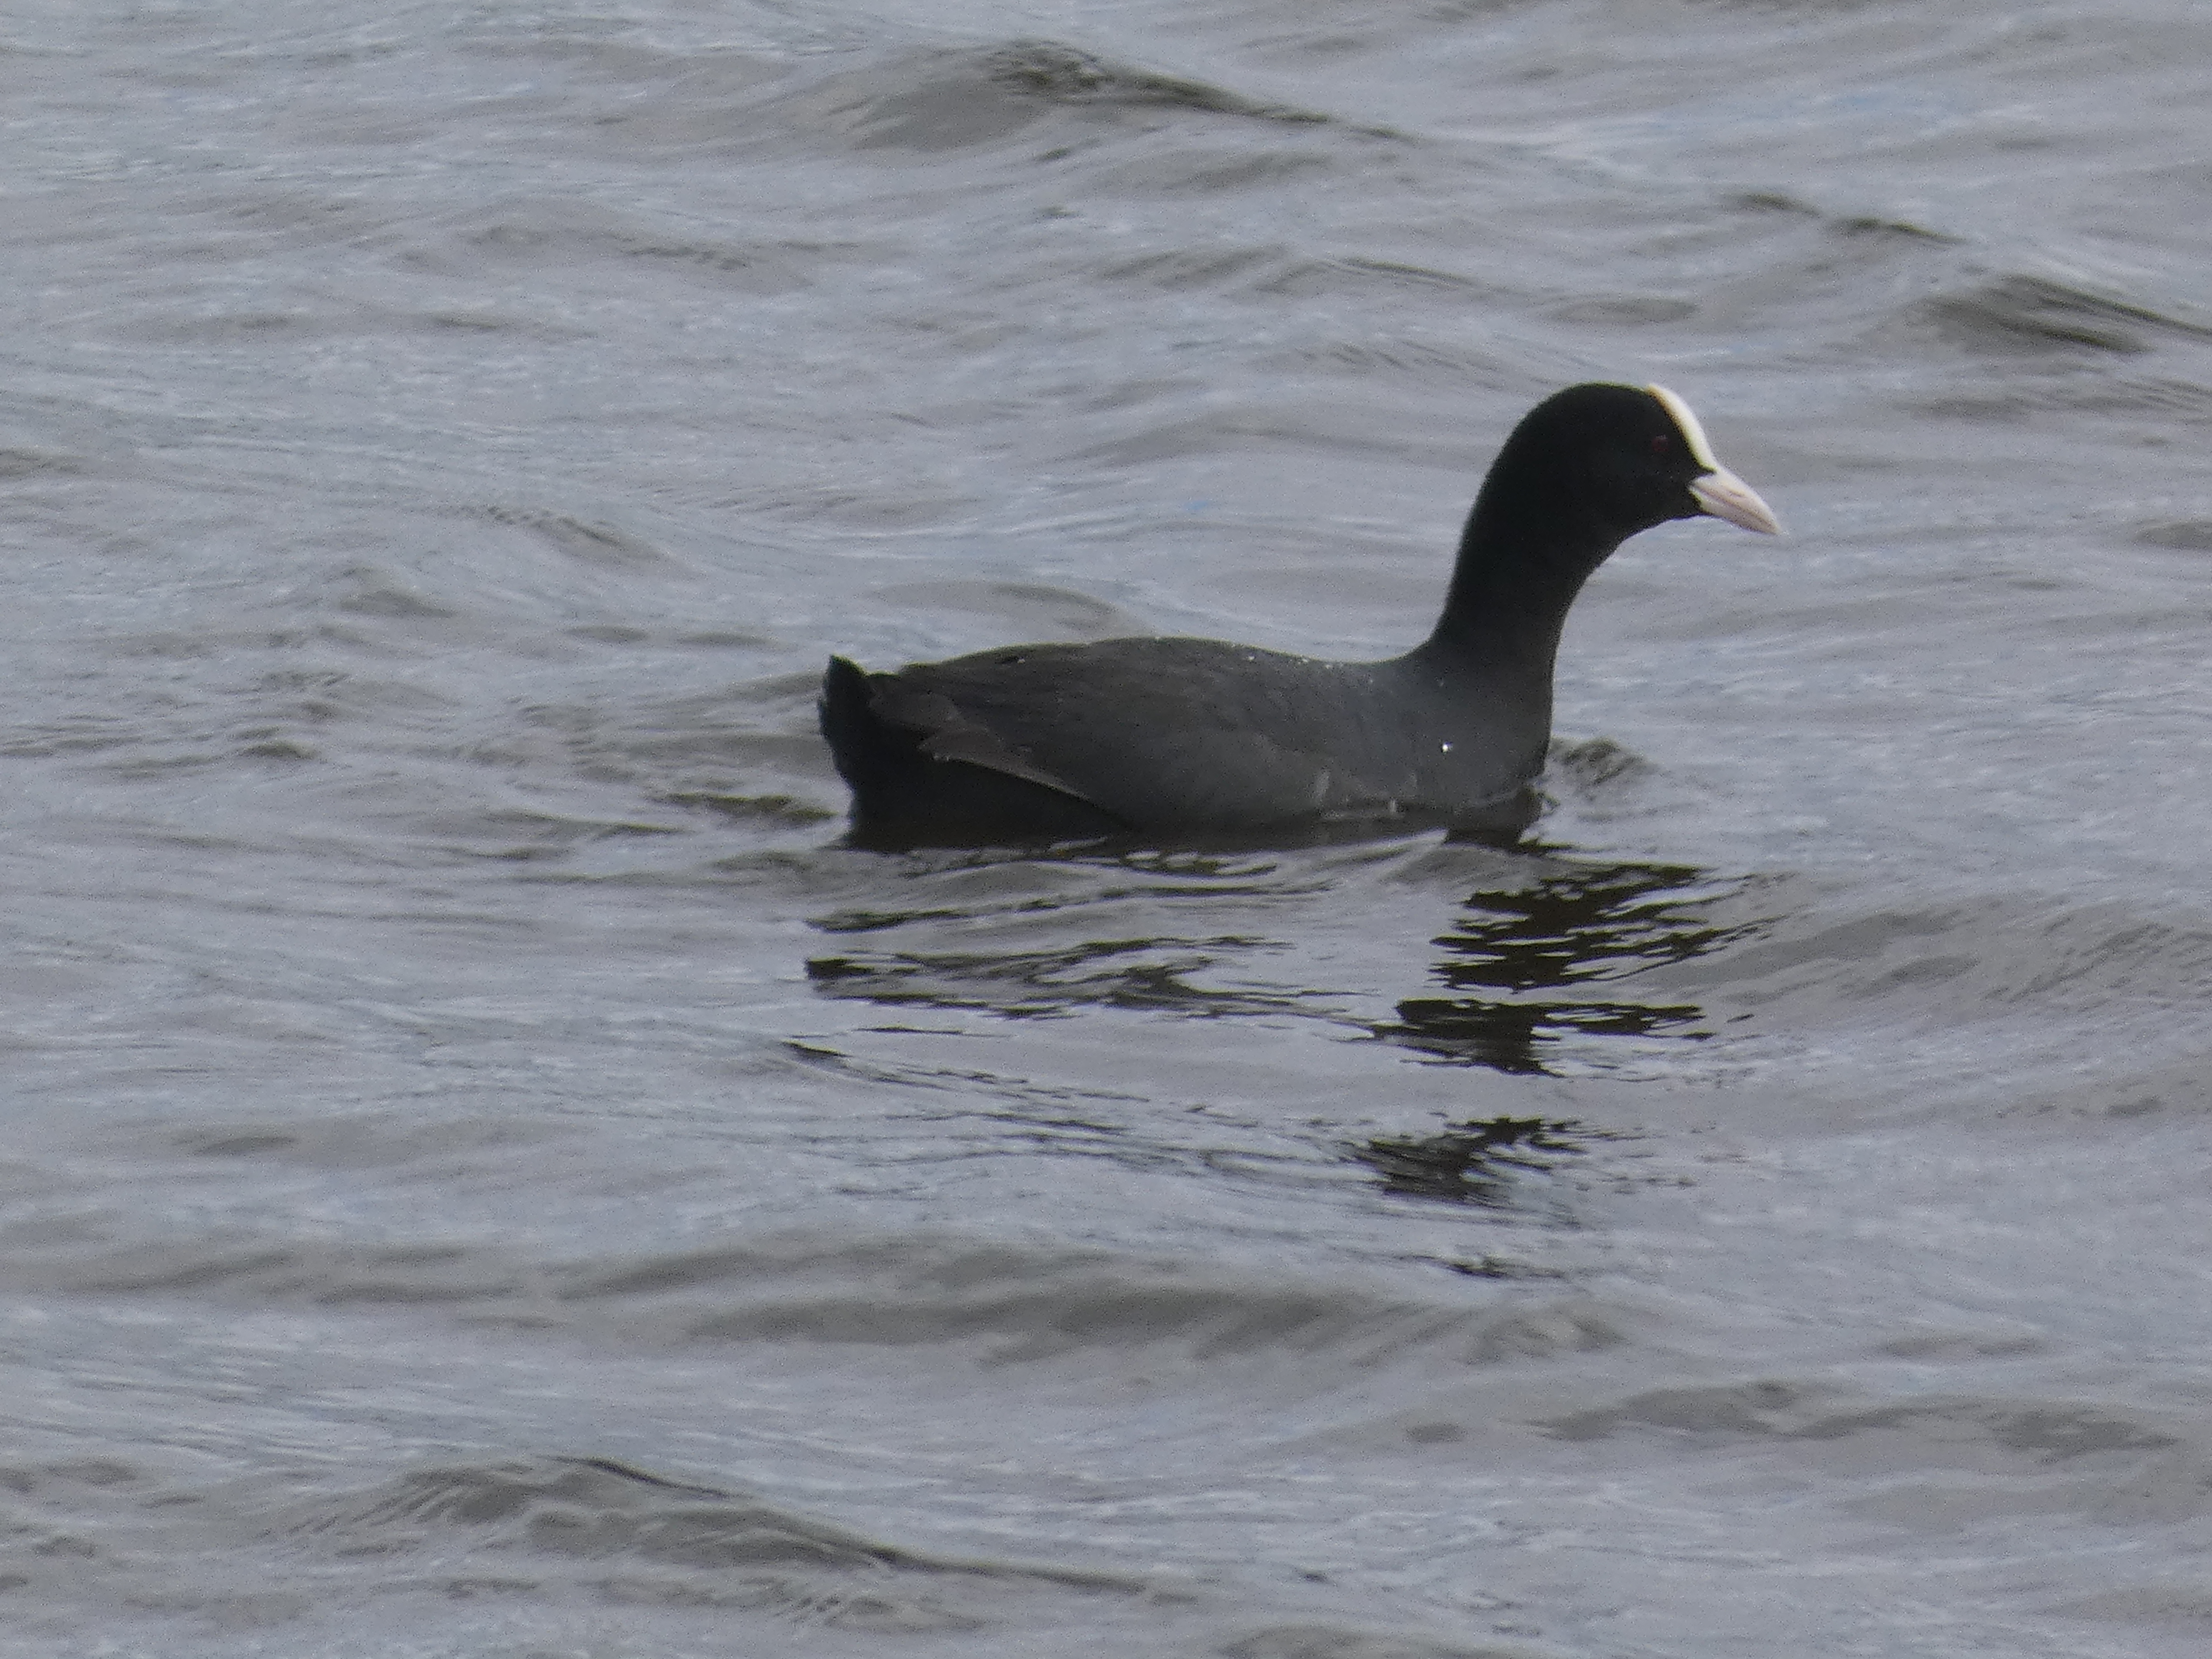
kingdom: Animalia
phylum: Chordata
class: Aves
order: Gruiformes
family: Rallidae
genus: Fulica
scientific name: Fulica atra
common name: Blishøne
